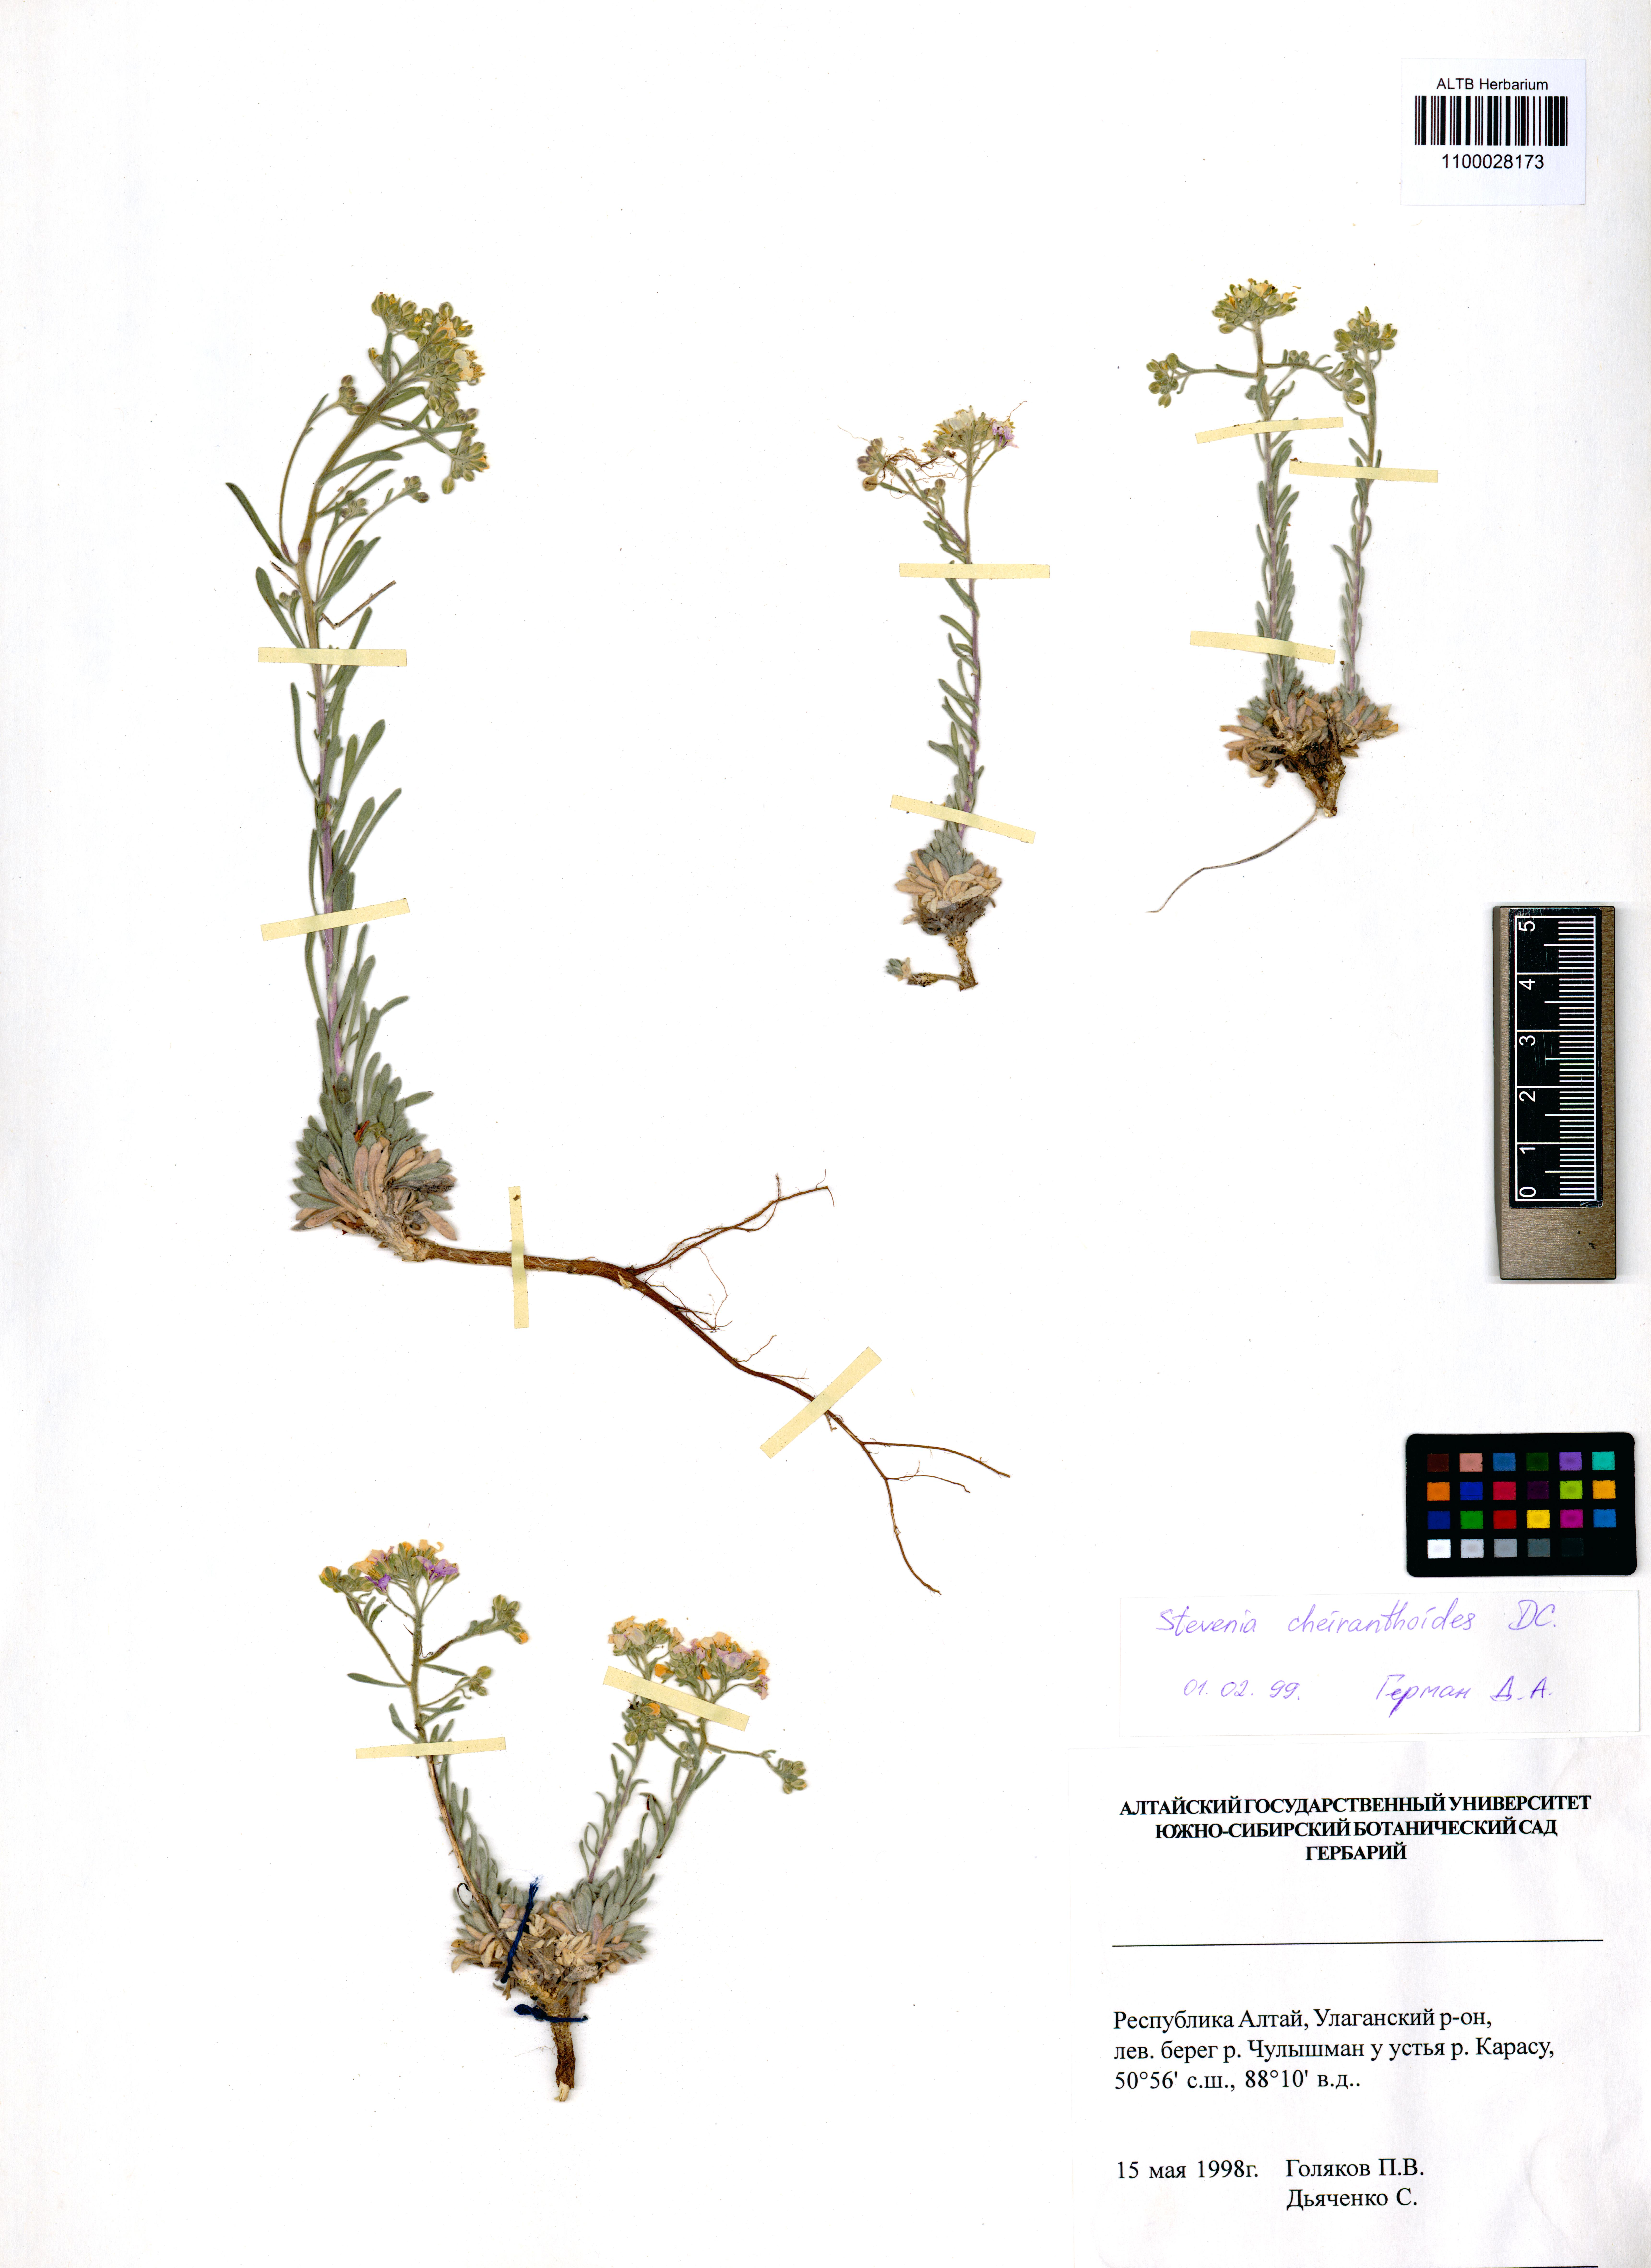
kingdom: Plantae
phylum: Tracheophyta
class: Magnoliopsida
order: Brassicales
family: Brassicaceae
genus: Stevenia
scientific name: Stevenia incarnata
